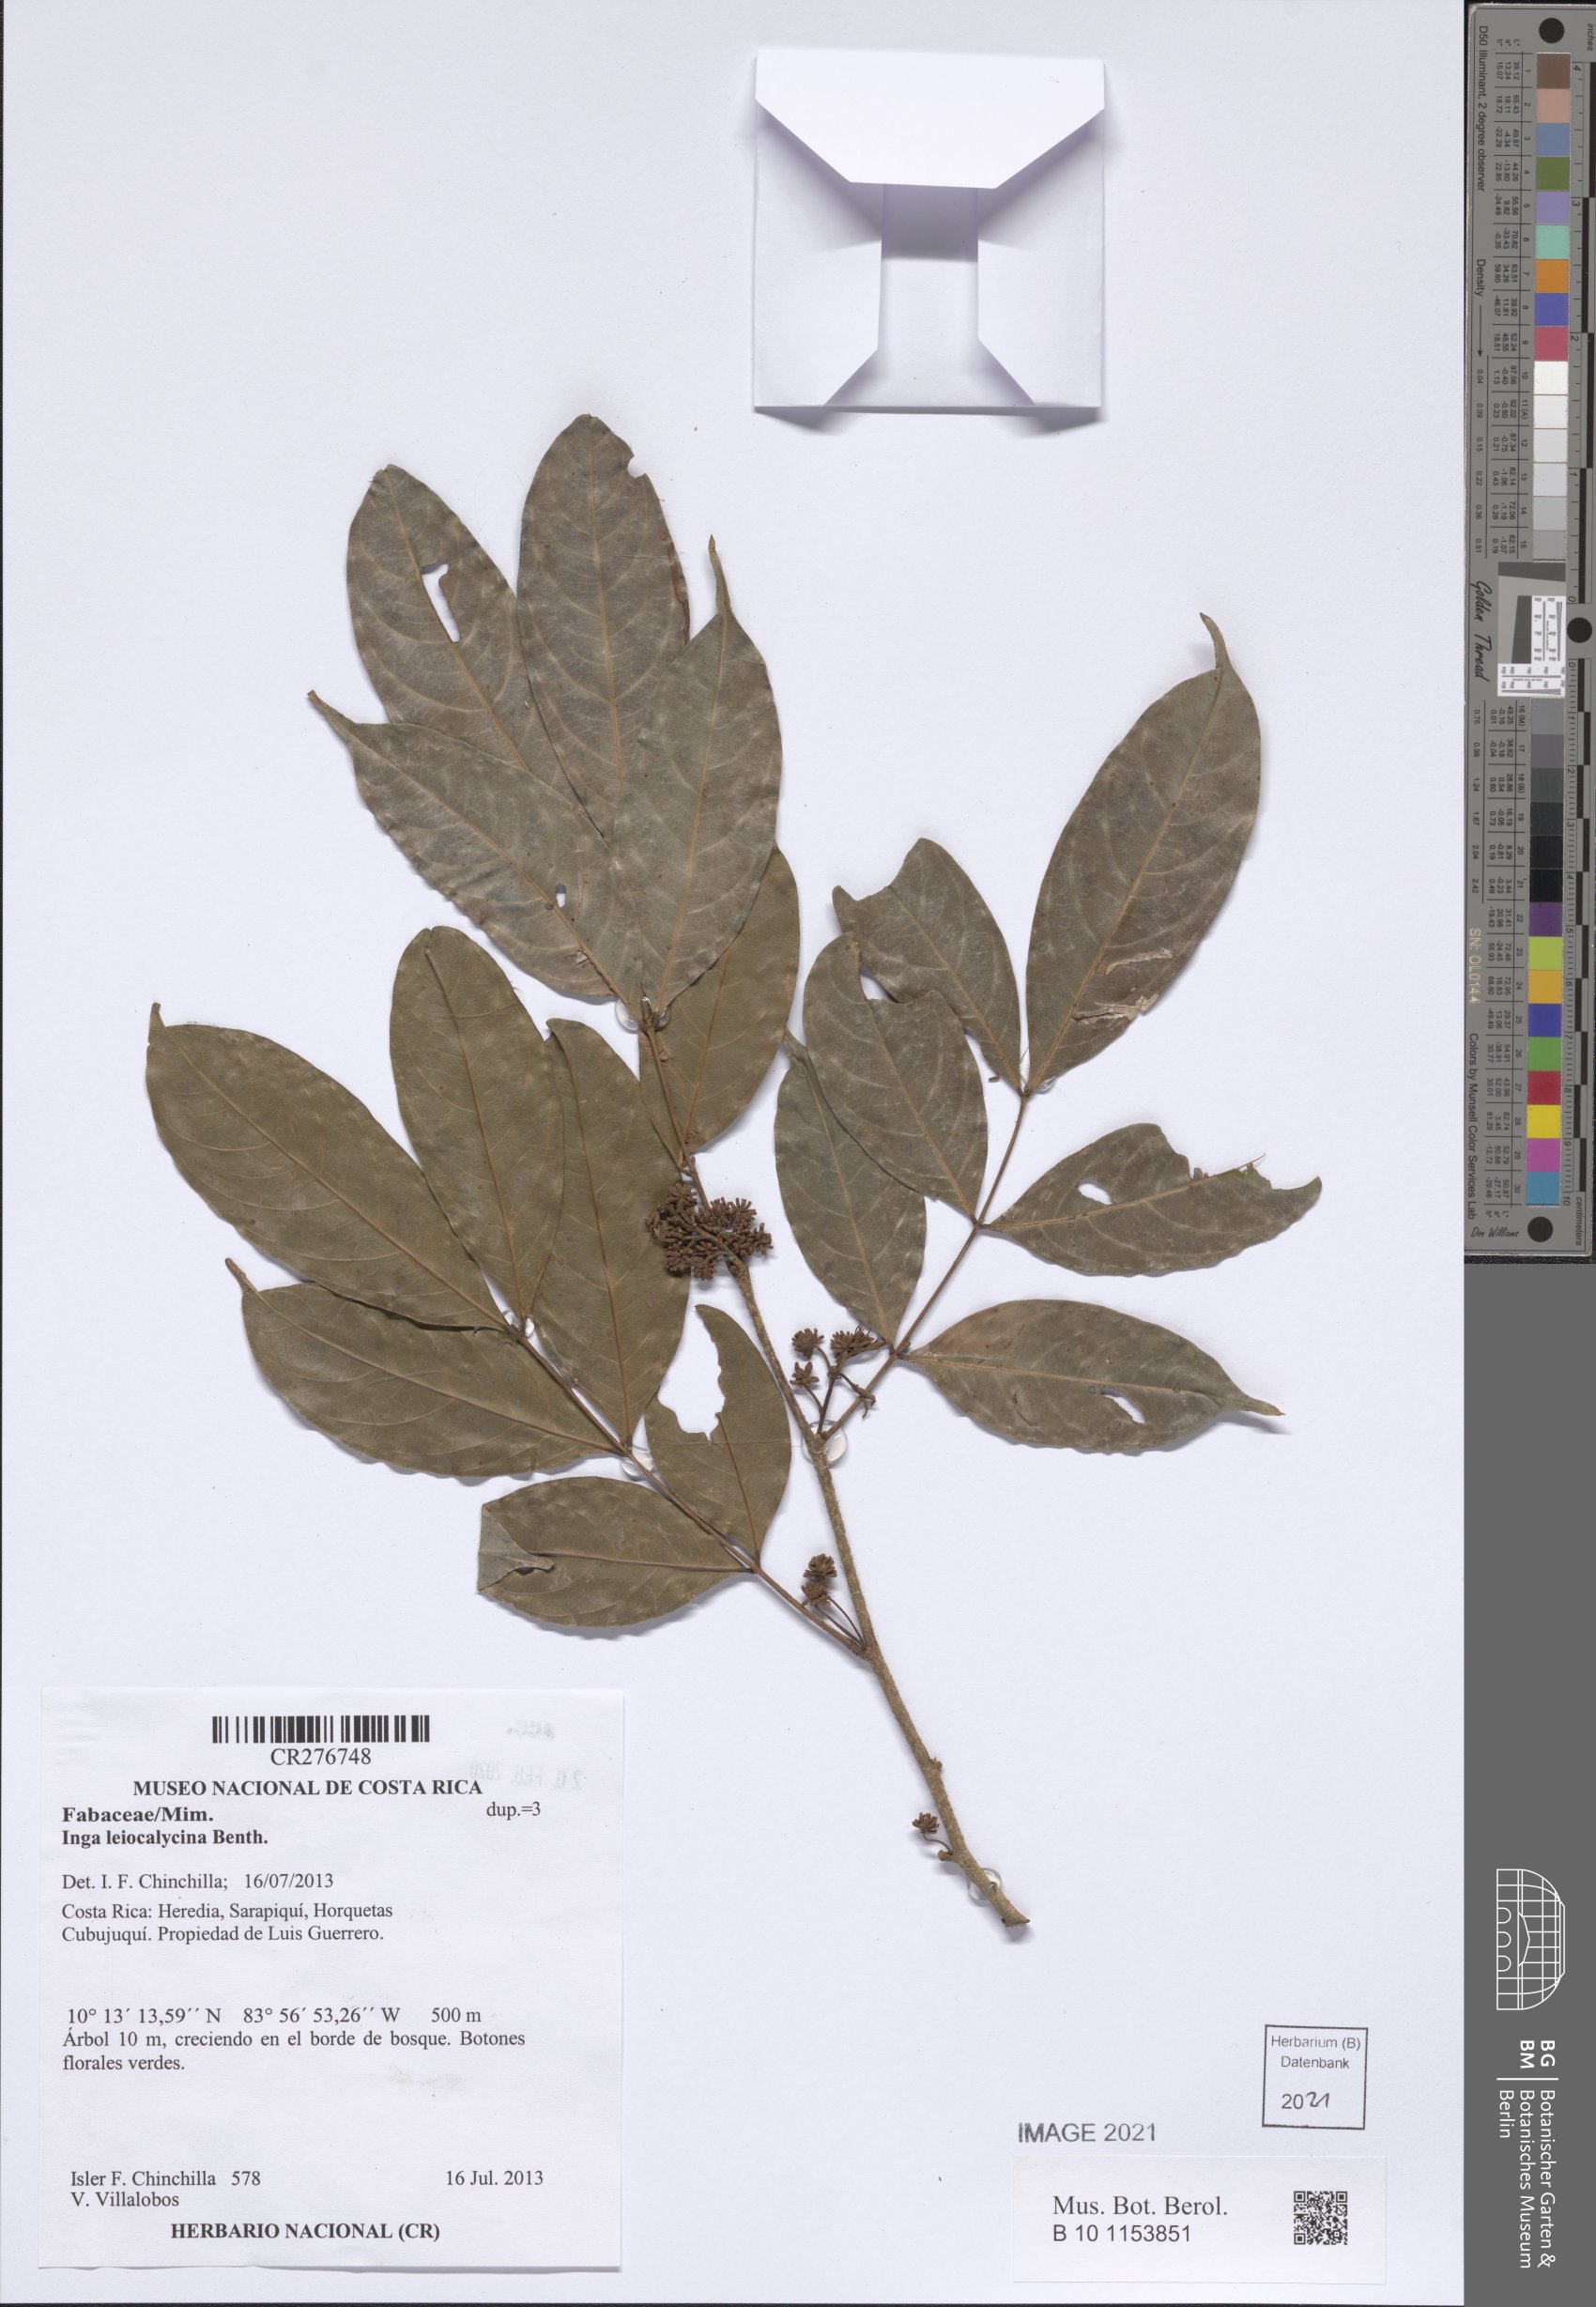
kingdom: Plantae
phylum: Tracheophyta
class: Magnoliopsida
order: Fabales
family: Fabaceae
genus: Inga
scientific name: Inga laevigata
